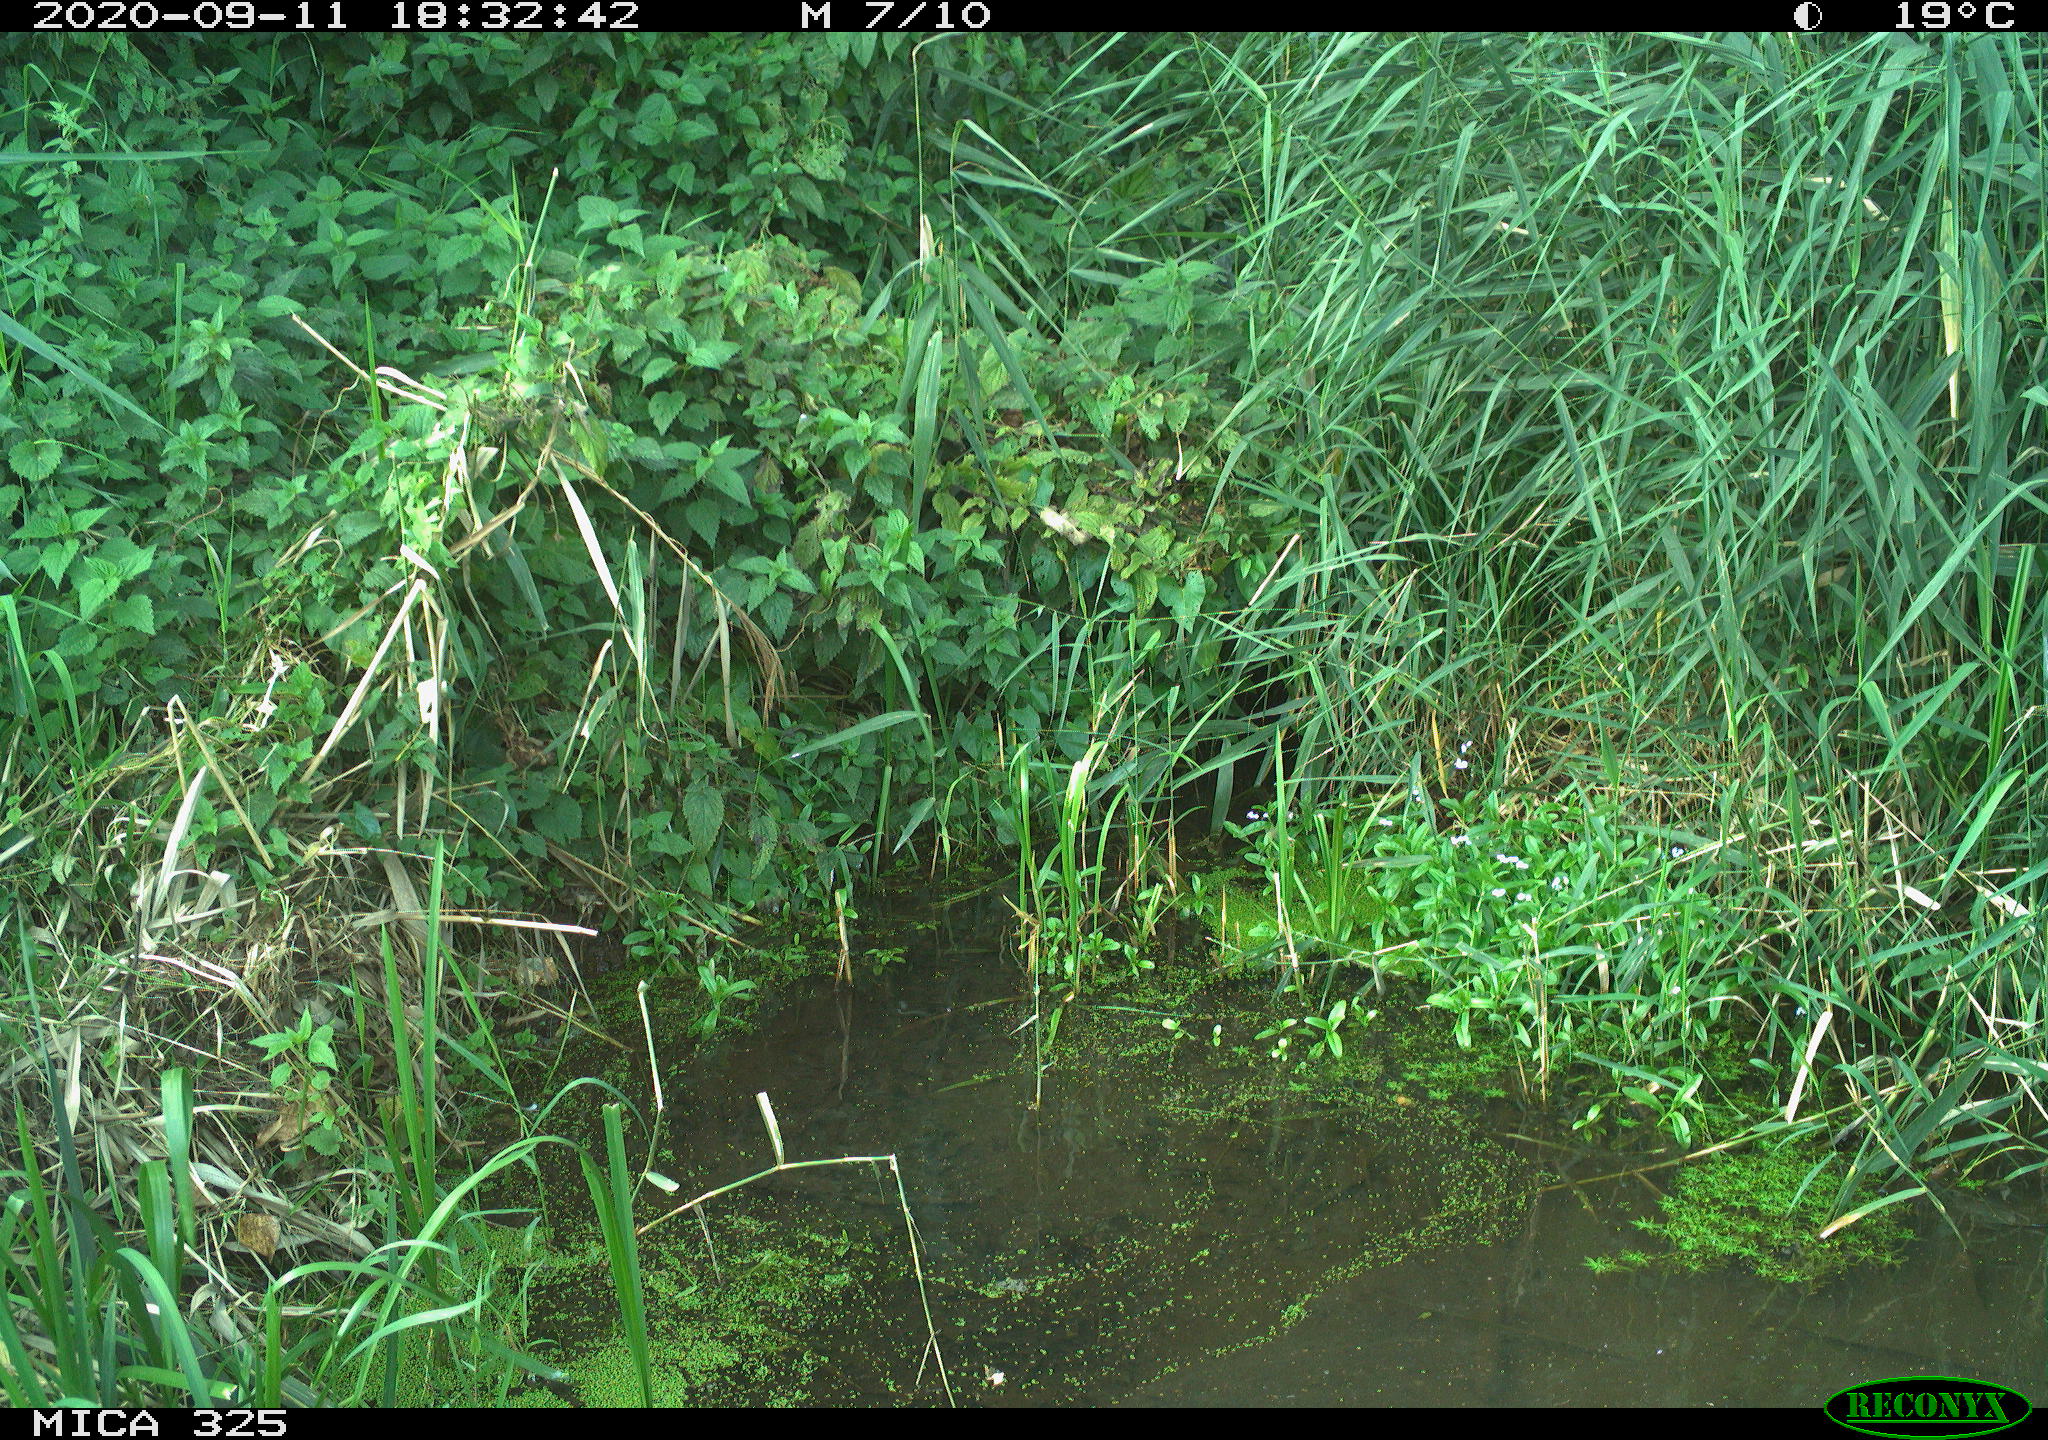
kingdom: Animalia
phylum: Chordata
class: Aves
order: Columbiformes
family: Columbidae
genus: Columba
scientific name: Columba palumbus
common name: Common wood pigeon
